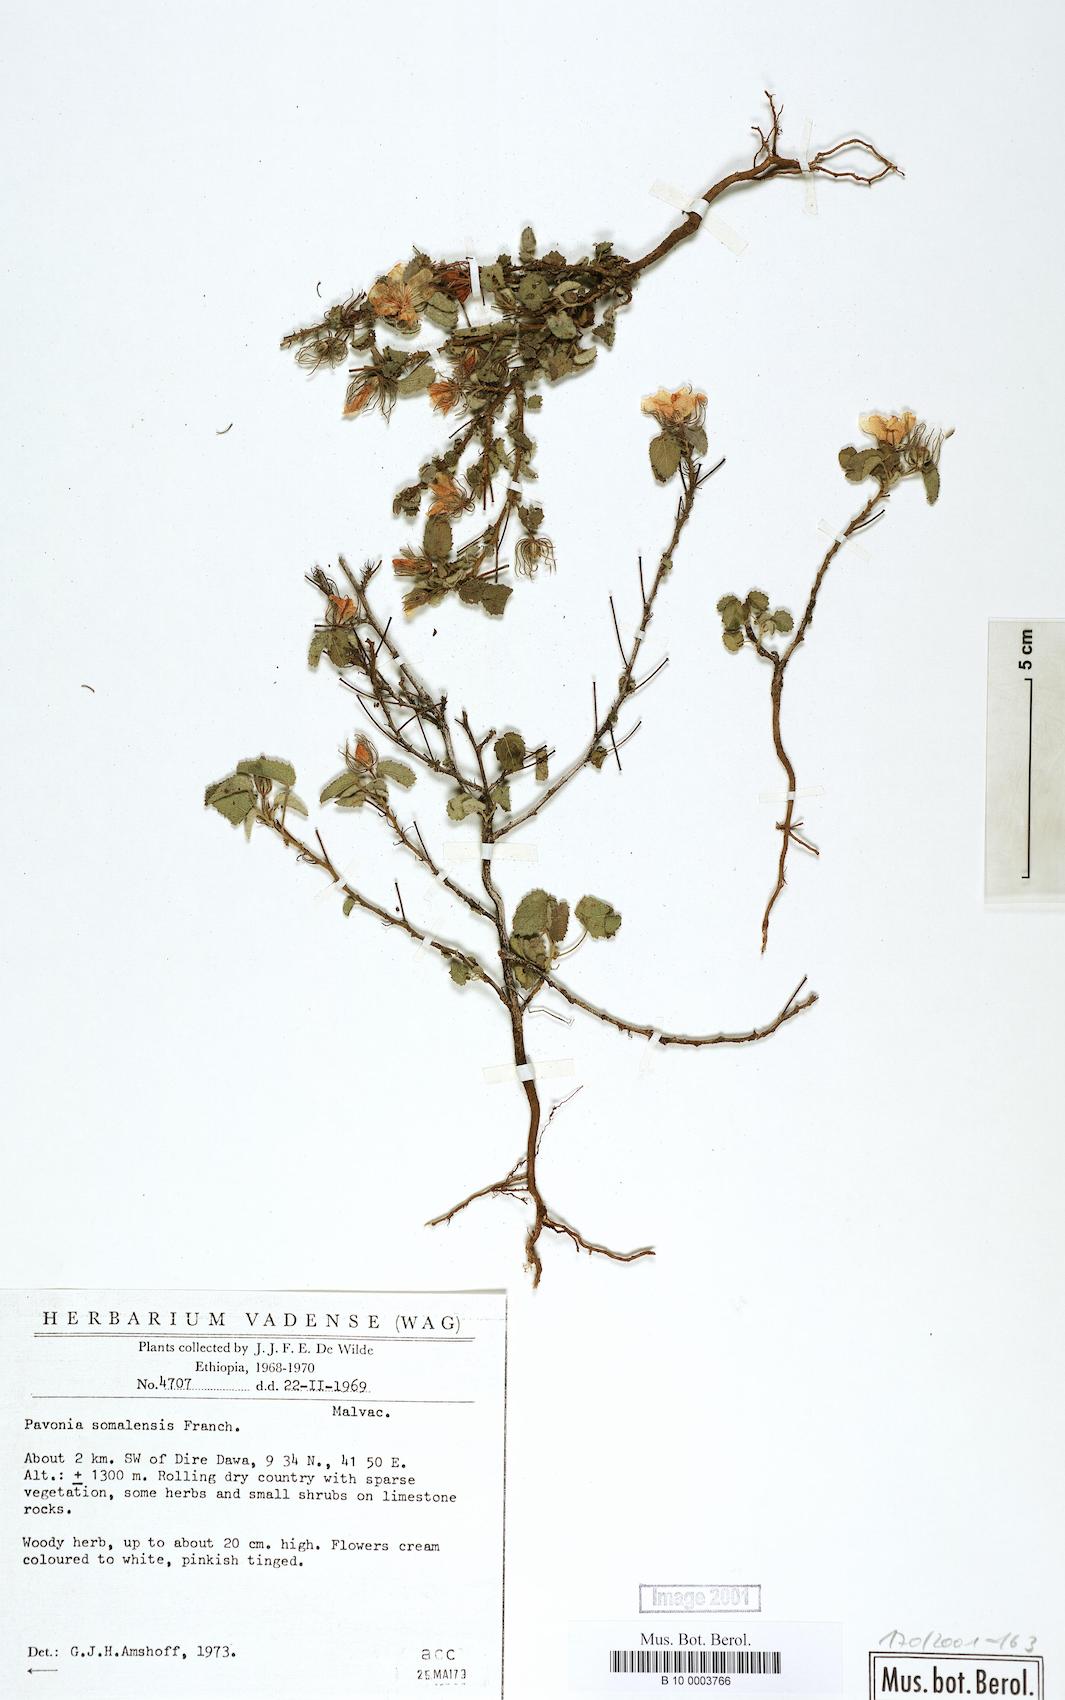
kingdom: Plantae
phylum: Tracheophyta
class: Magnoliopsida
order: Malvales
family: Malvaceae
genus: Pavonia
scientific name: Pavonia somalensis
